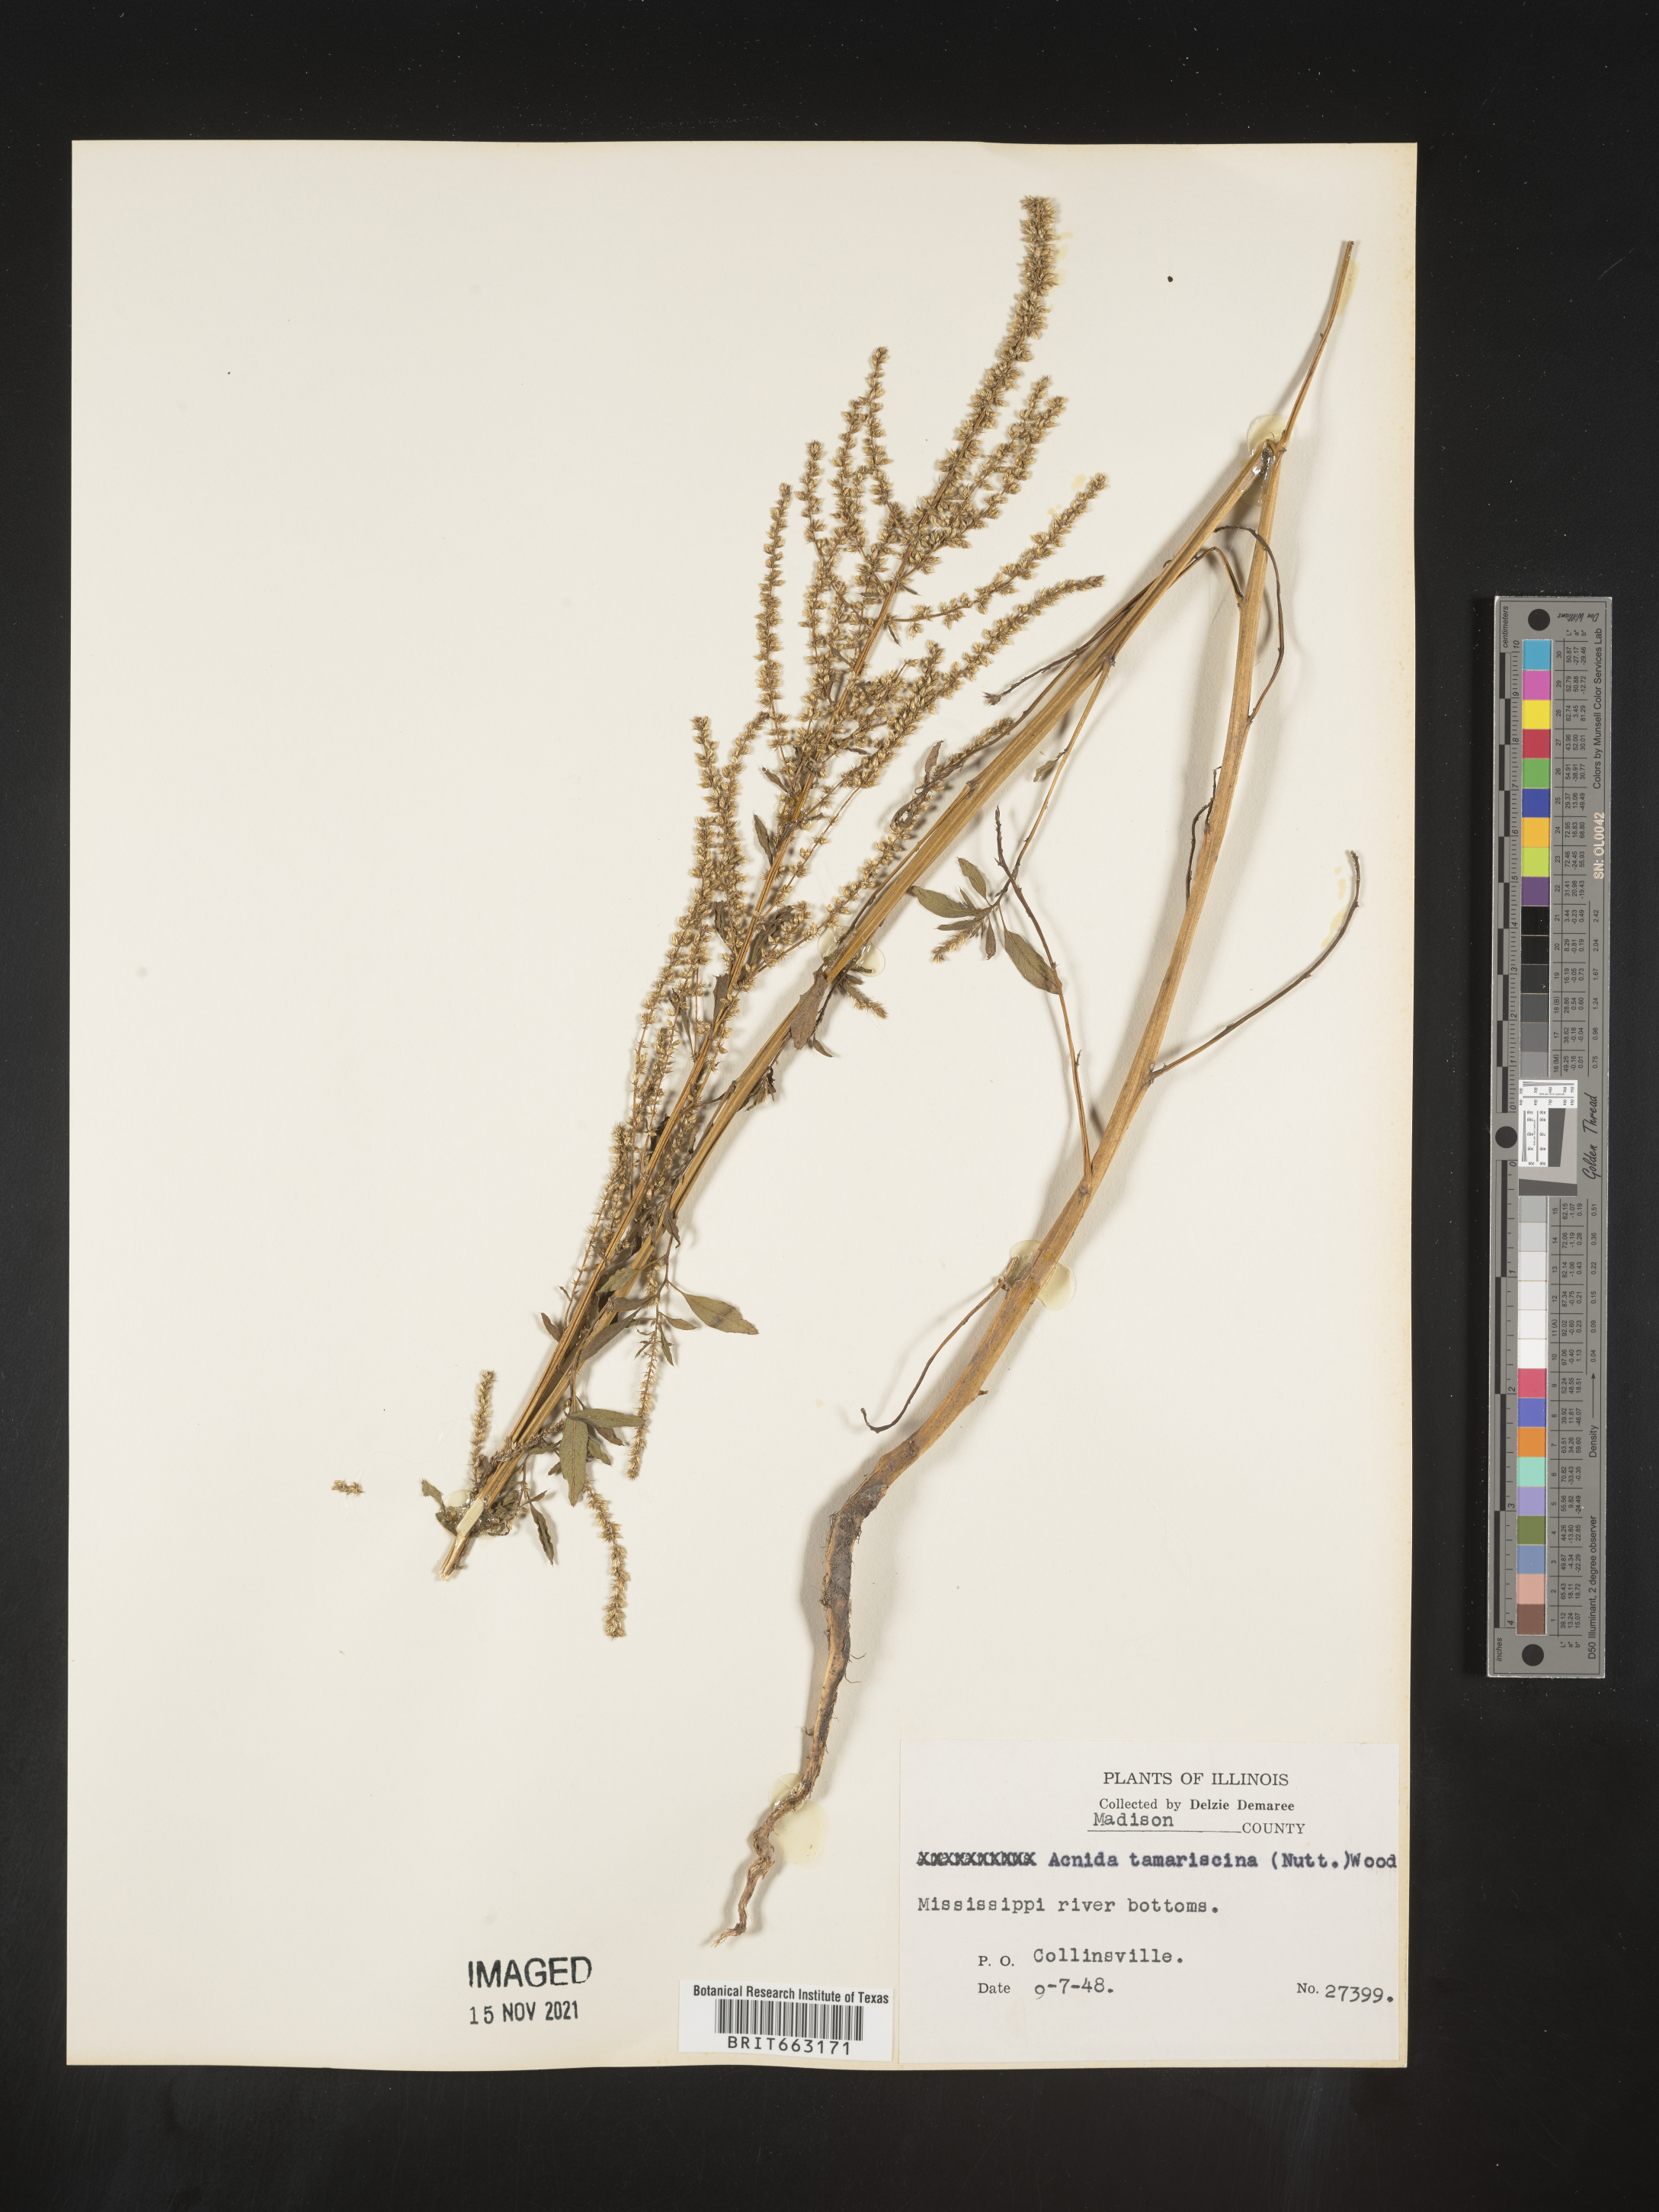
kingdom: Plantae
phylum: Tracheophyta
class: Magnoliopsida
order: Caryophyllales
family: Amaranthaceae
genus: Amaranthus
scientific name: Amaranthus tamariscinus
